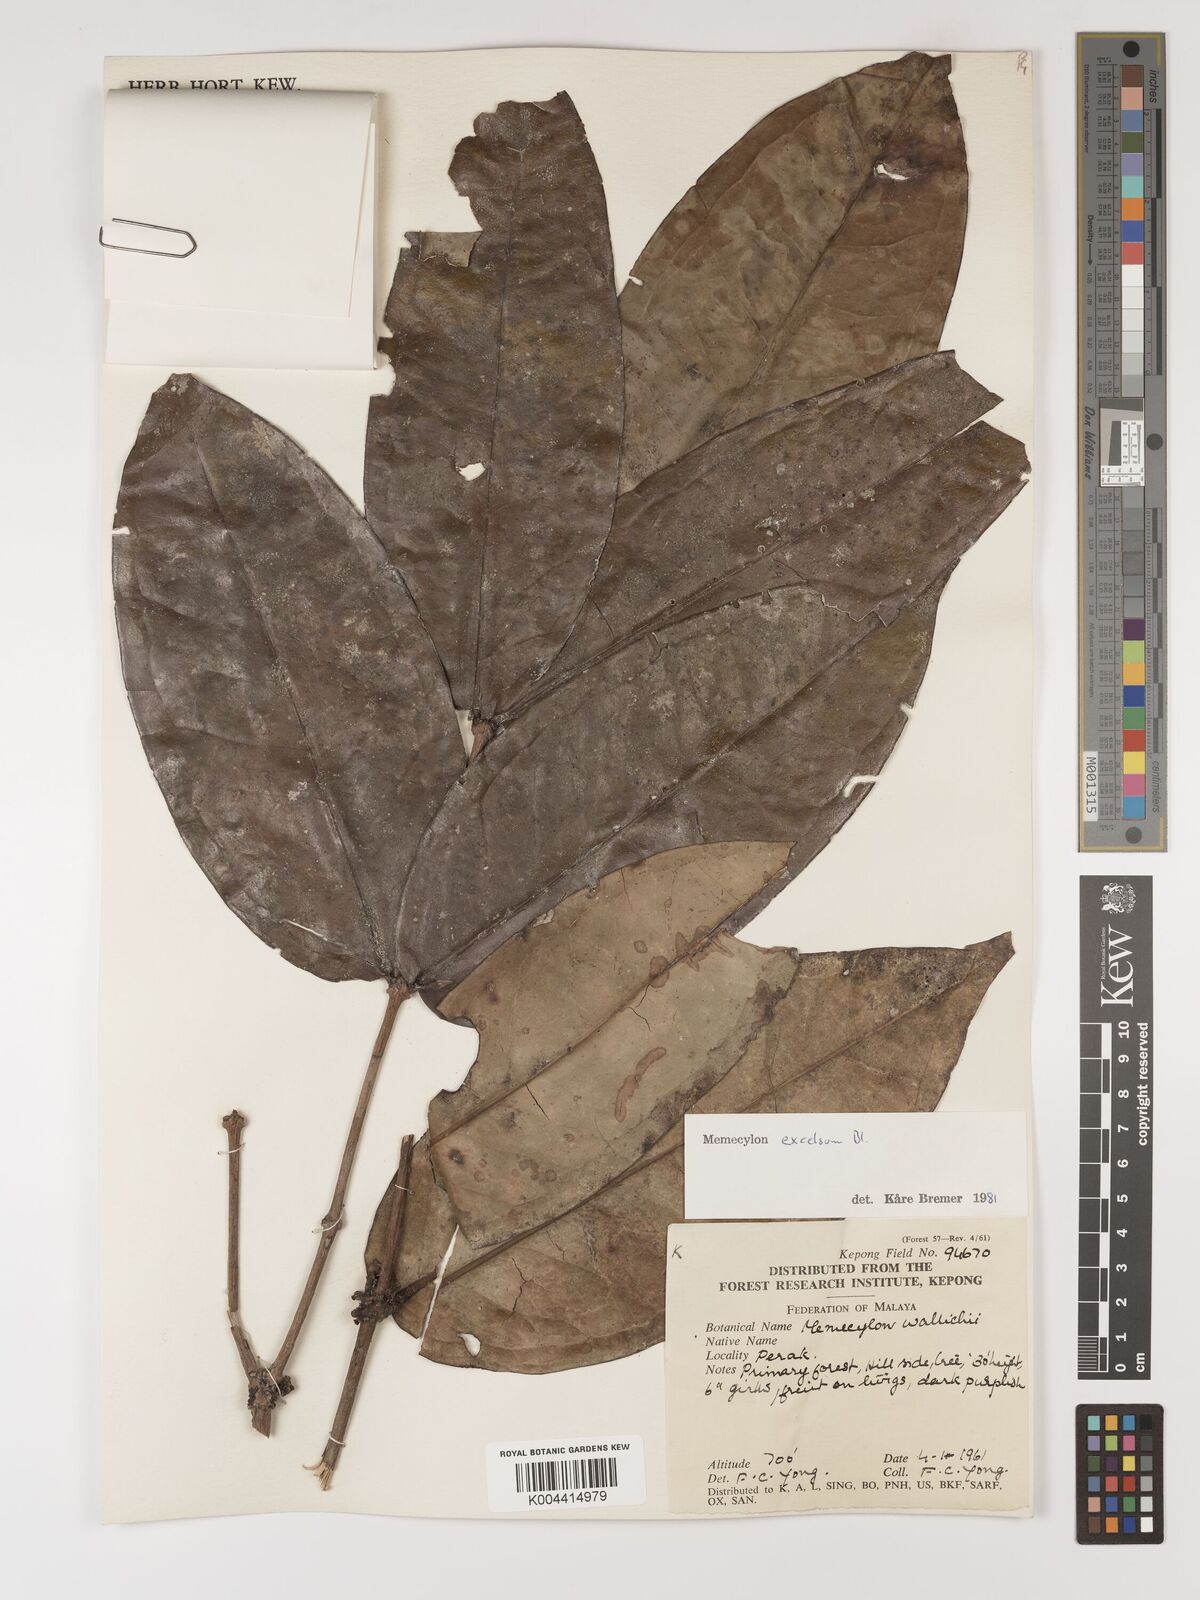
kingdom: Plantae
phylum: Tracheophyta
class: Magnoliopsida
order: Myrtales
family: Melastomataceae
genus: Memecylon
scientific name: Memecylon excelsum
